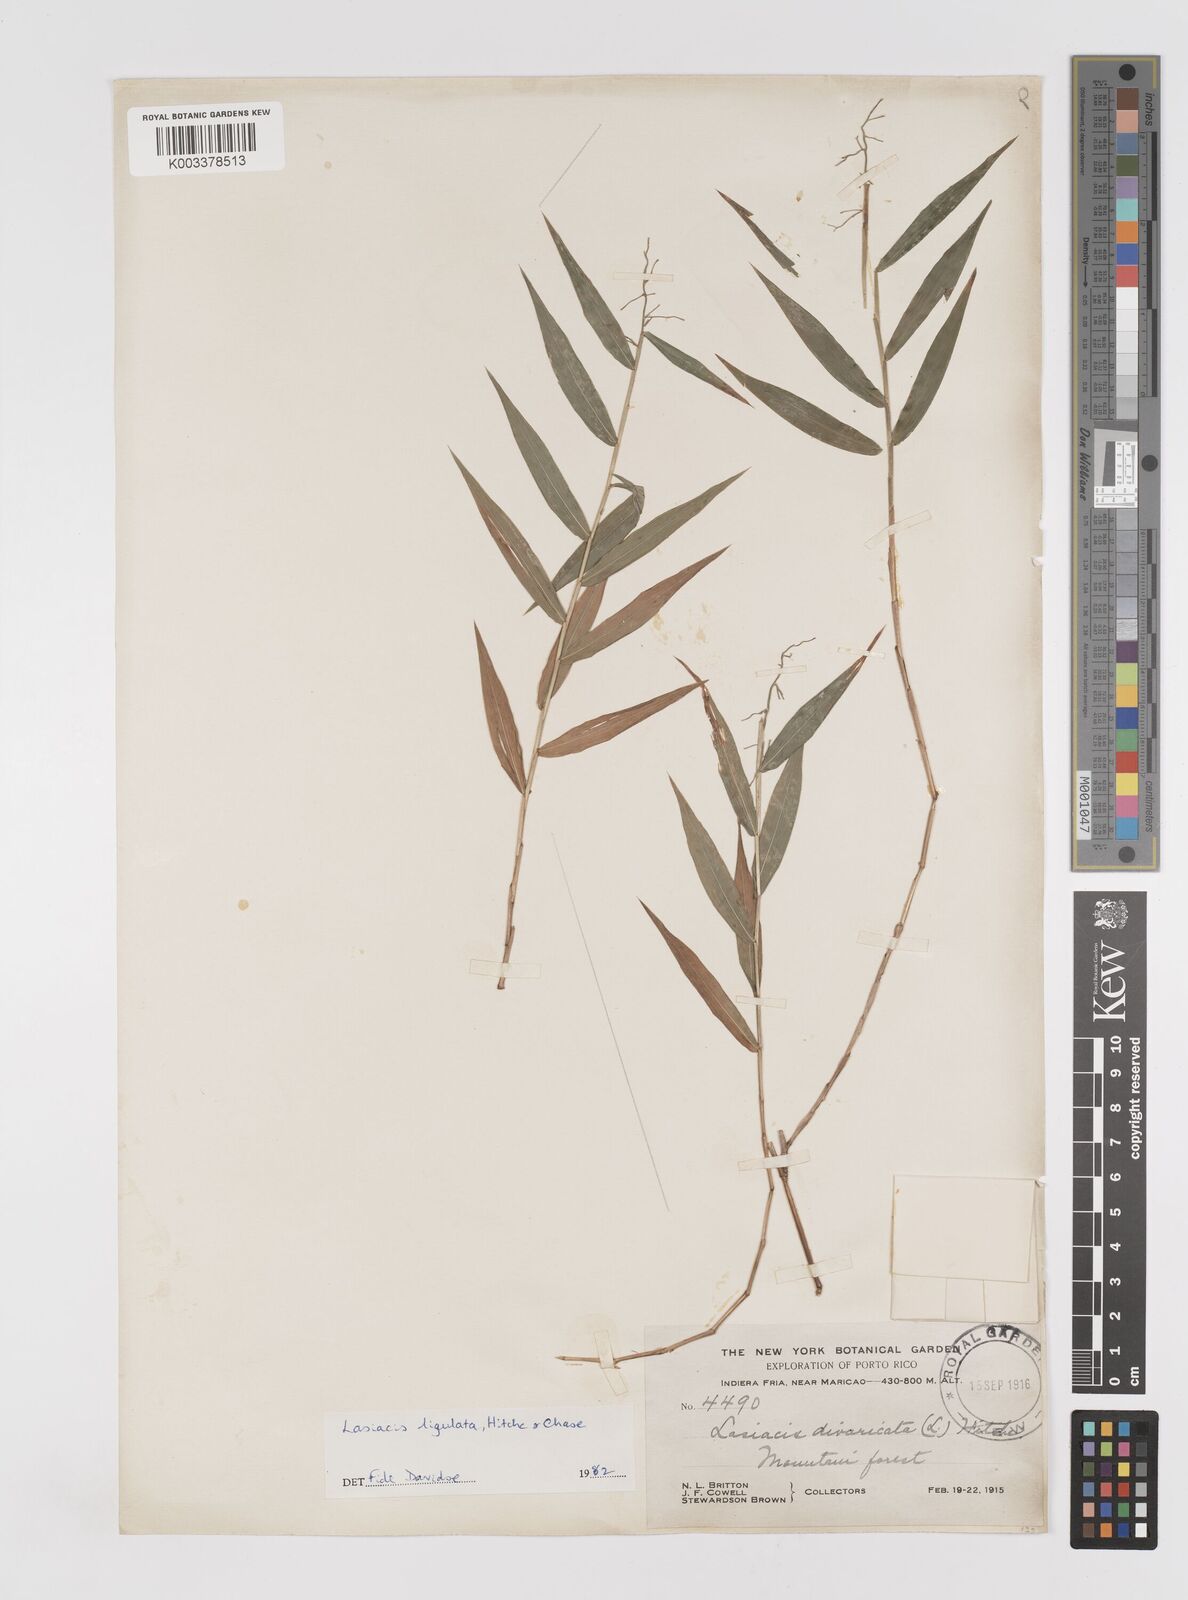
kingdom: Plantae
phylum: Tracheophyta
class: Liliopsida
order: Poales
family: Poaceae
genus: Lasiacis
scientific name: Lasiacis ligulata
